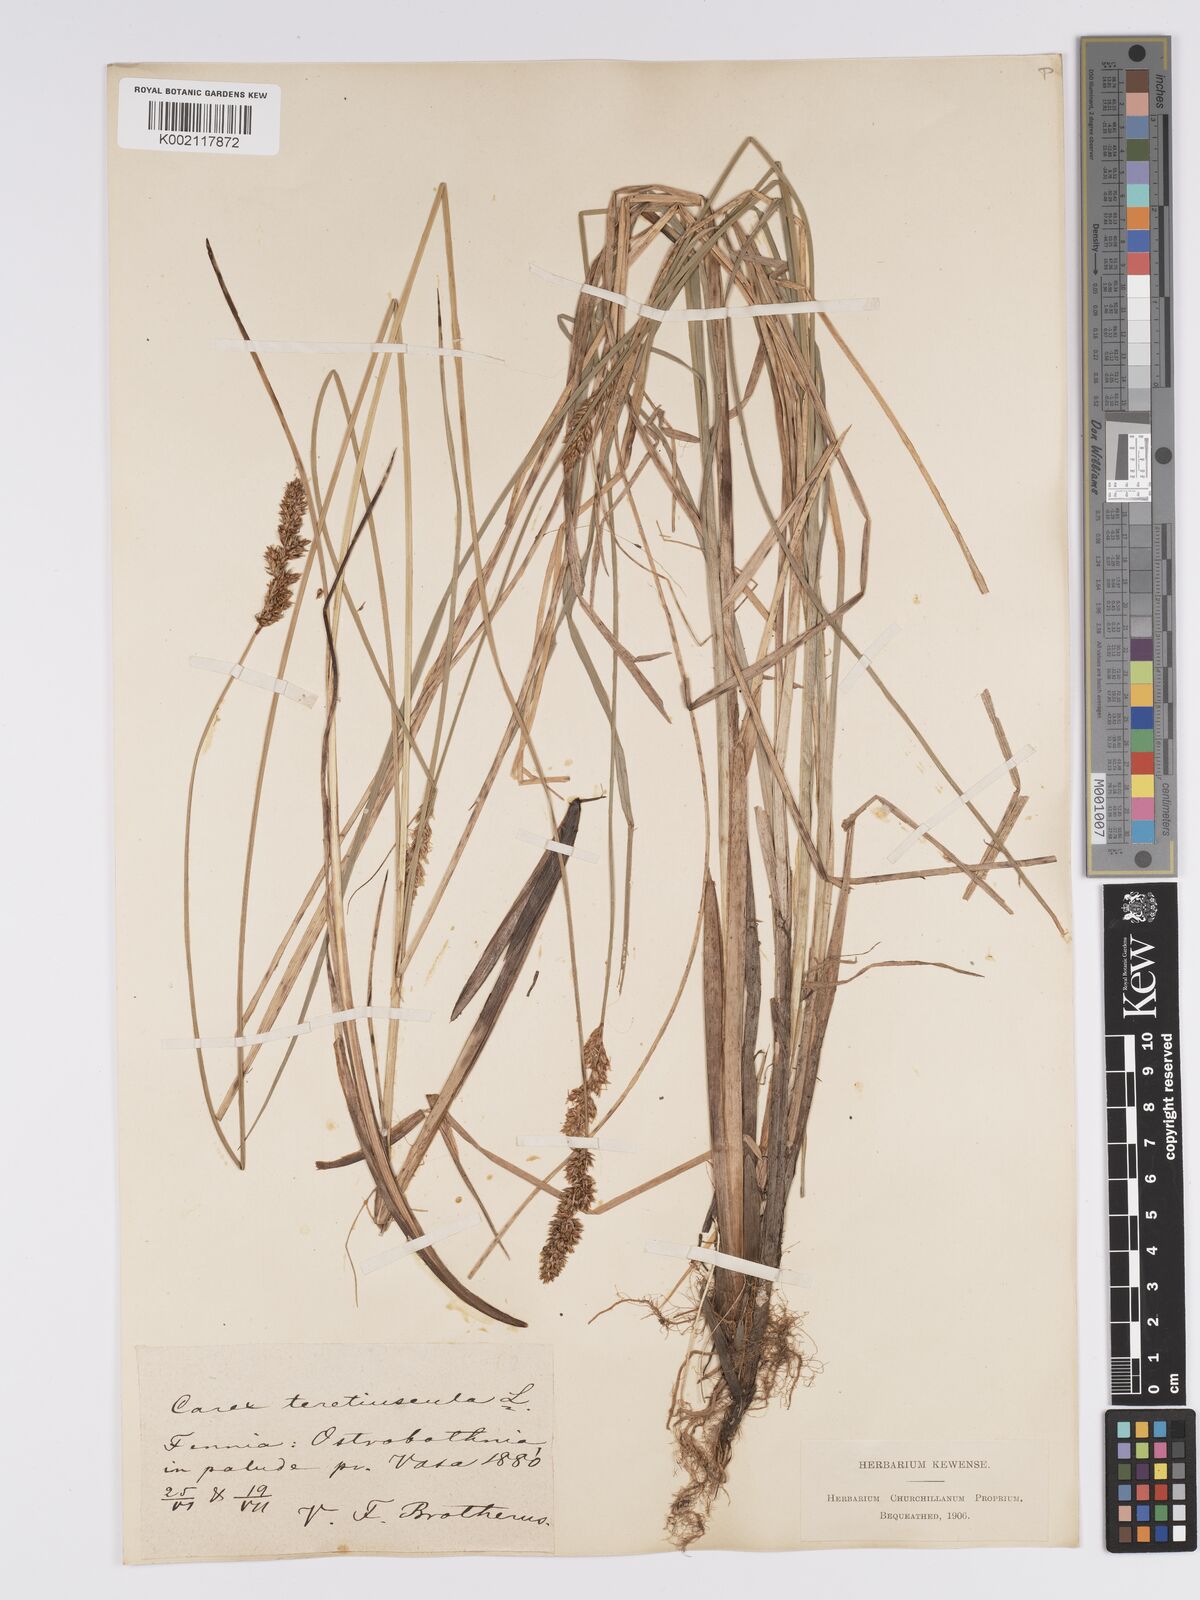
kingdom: Plantae
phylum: Tracheophyta
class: Liliopsida
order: Poales
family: Cyperaceae
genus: Carex
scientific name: Carex diandra
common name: Lesser tussock-sedge
